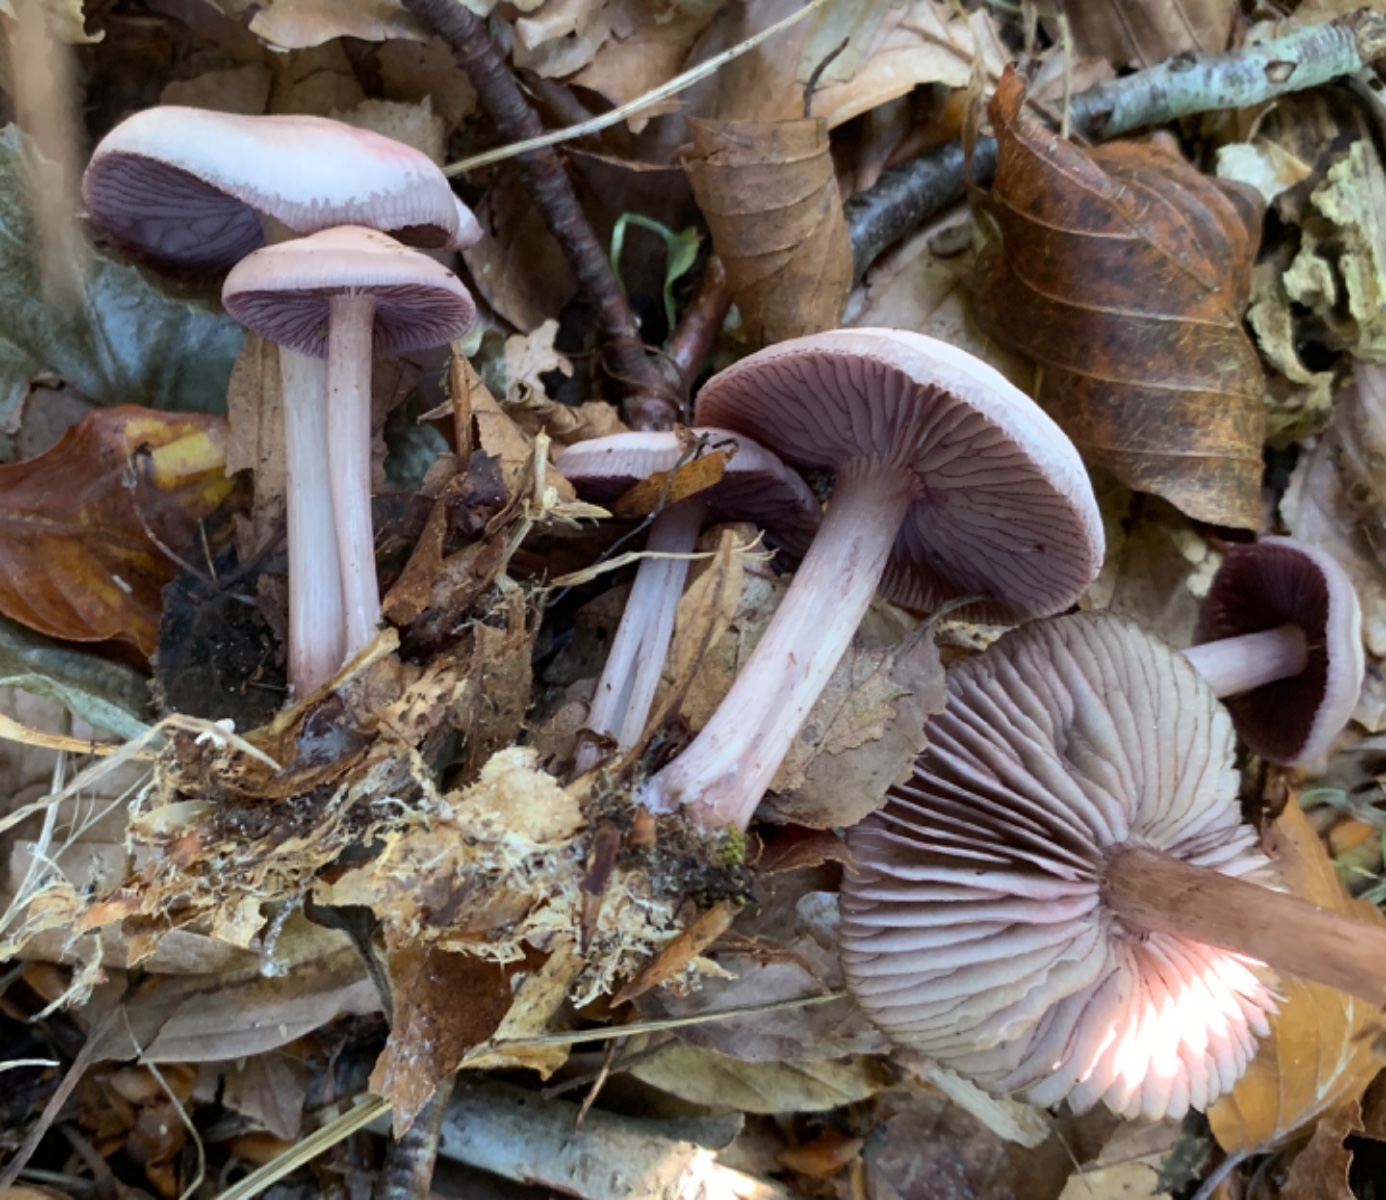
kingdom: Fungi
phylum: Basidiomycota
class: Agaricomycetes
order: Agaricales
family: Mycenaceae
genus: Mycena
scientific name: Mycena pelianthina
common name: mørkbladet huesvamp
